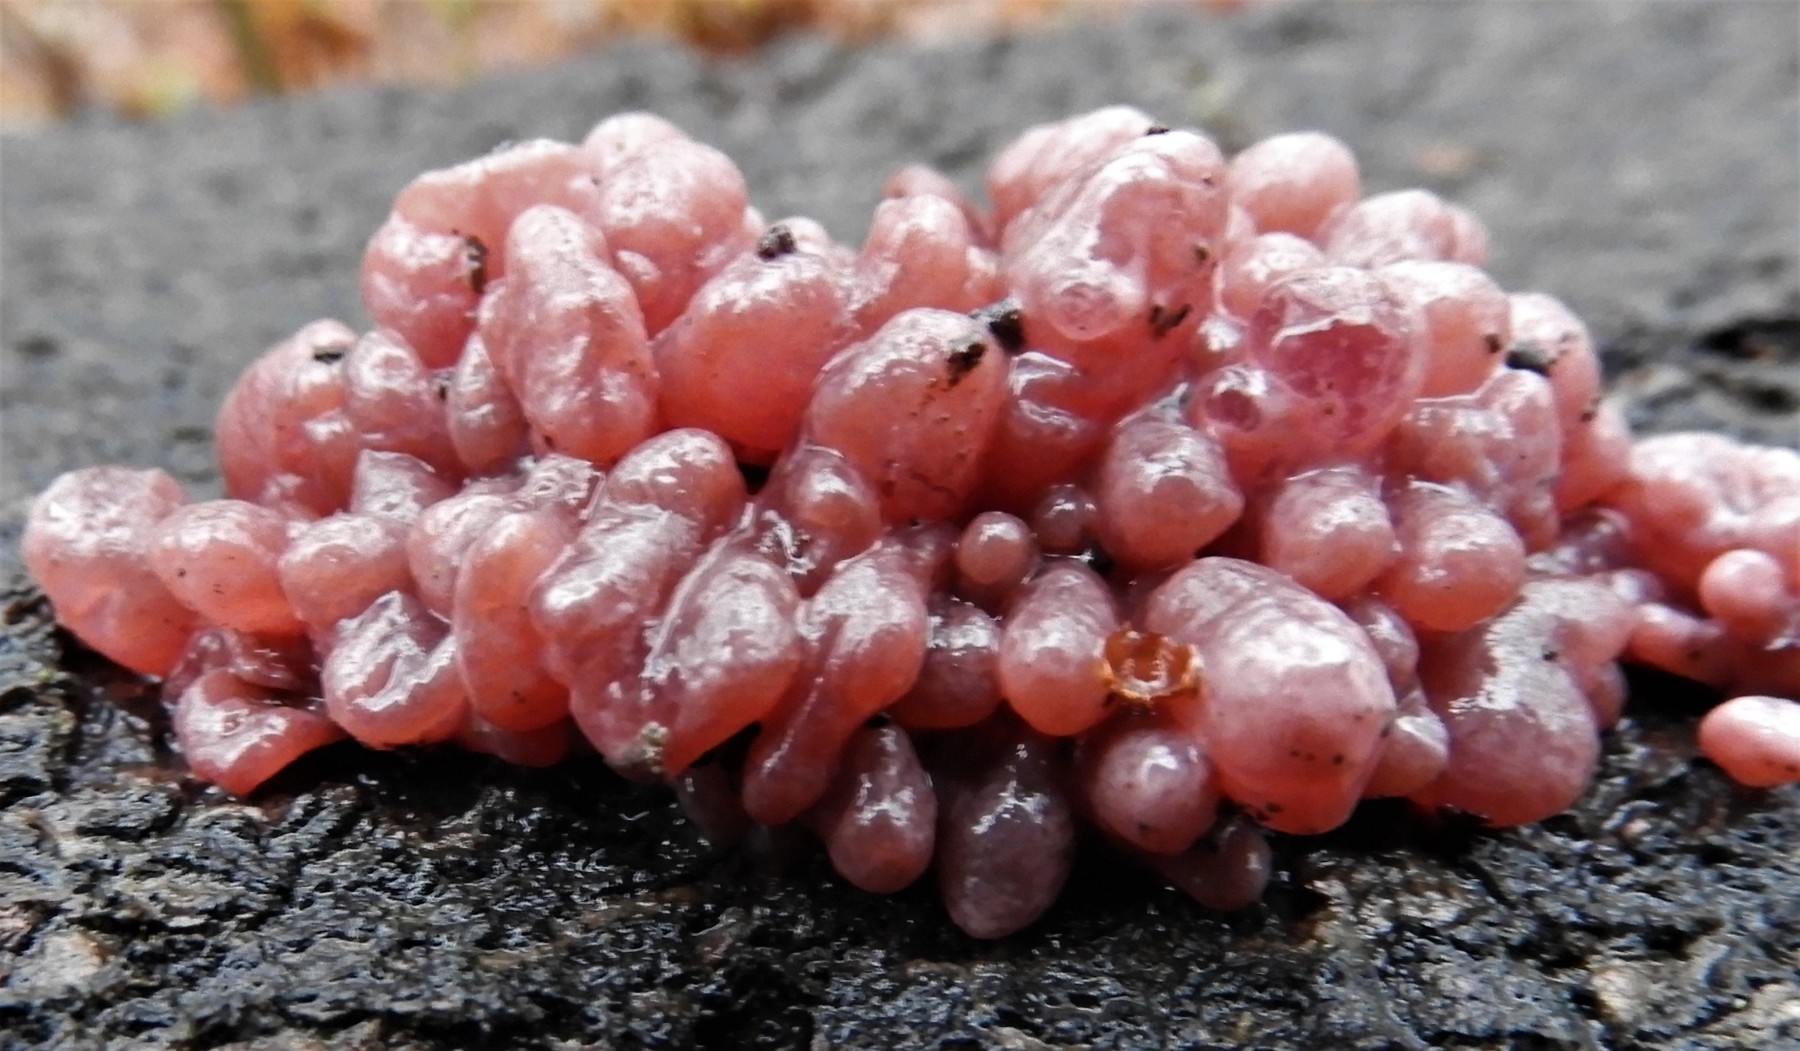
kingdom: Fungi
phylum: Ascomycota
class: Leotiomycetes
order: Helotiales
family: Gelatinodiscaceae
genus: Ascocoryne
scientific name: Ascocoryne sarcoides
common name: rødlilla sejskive
